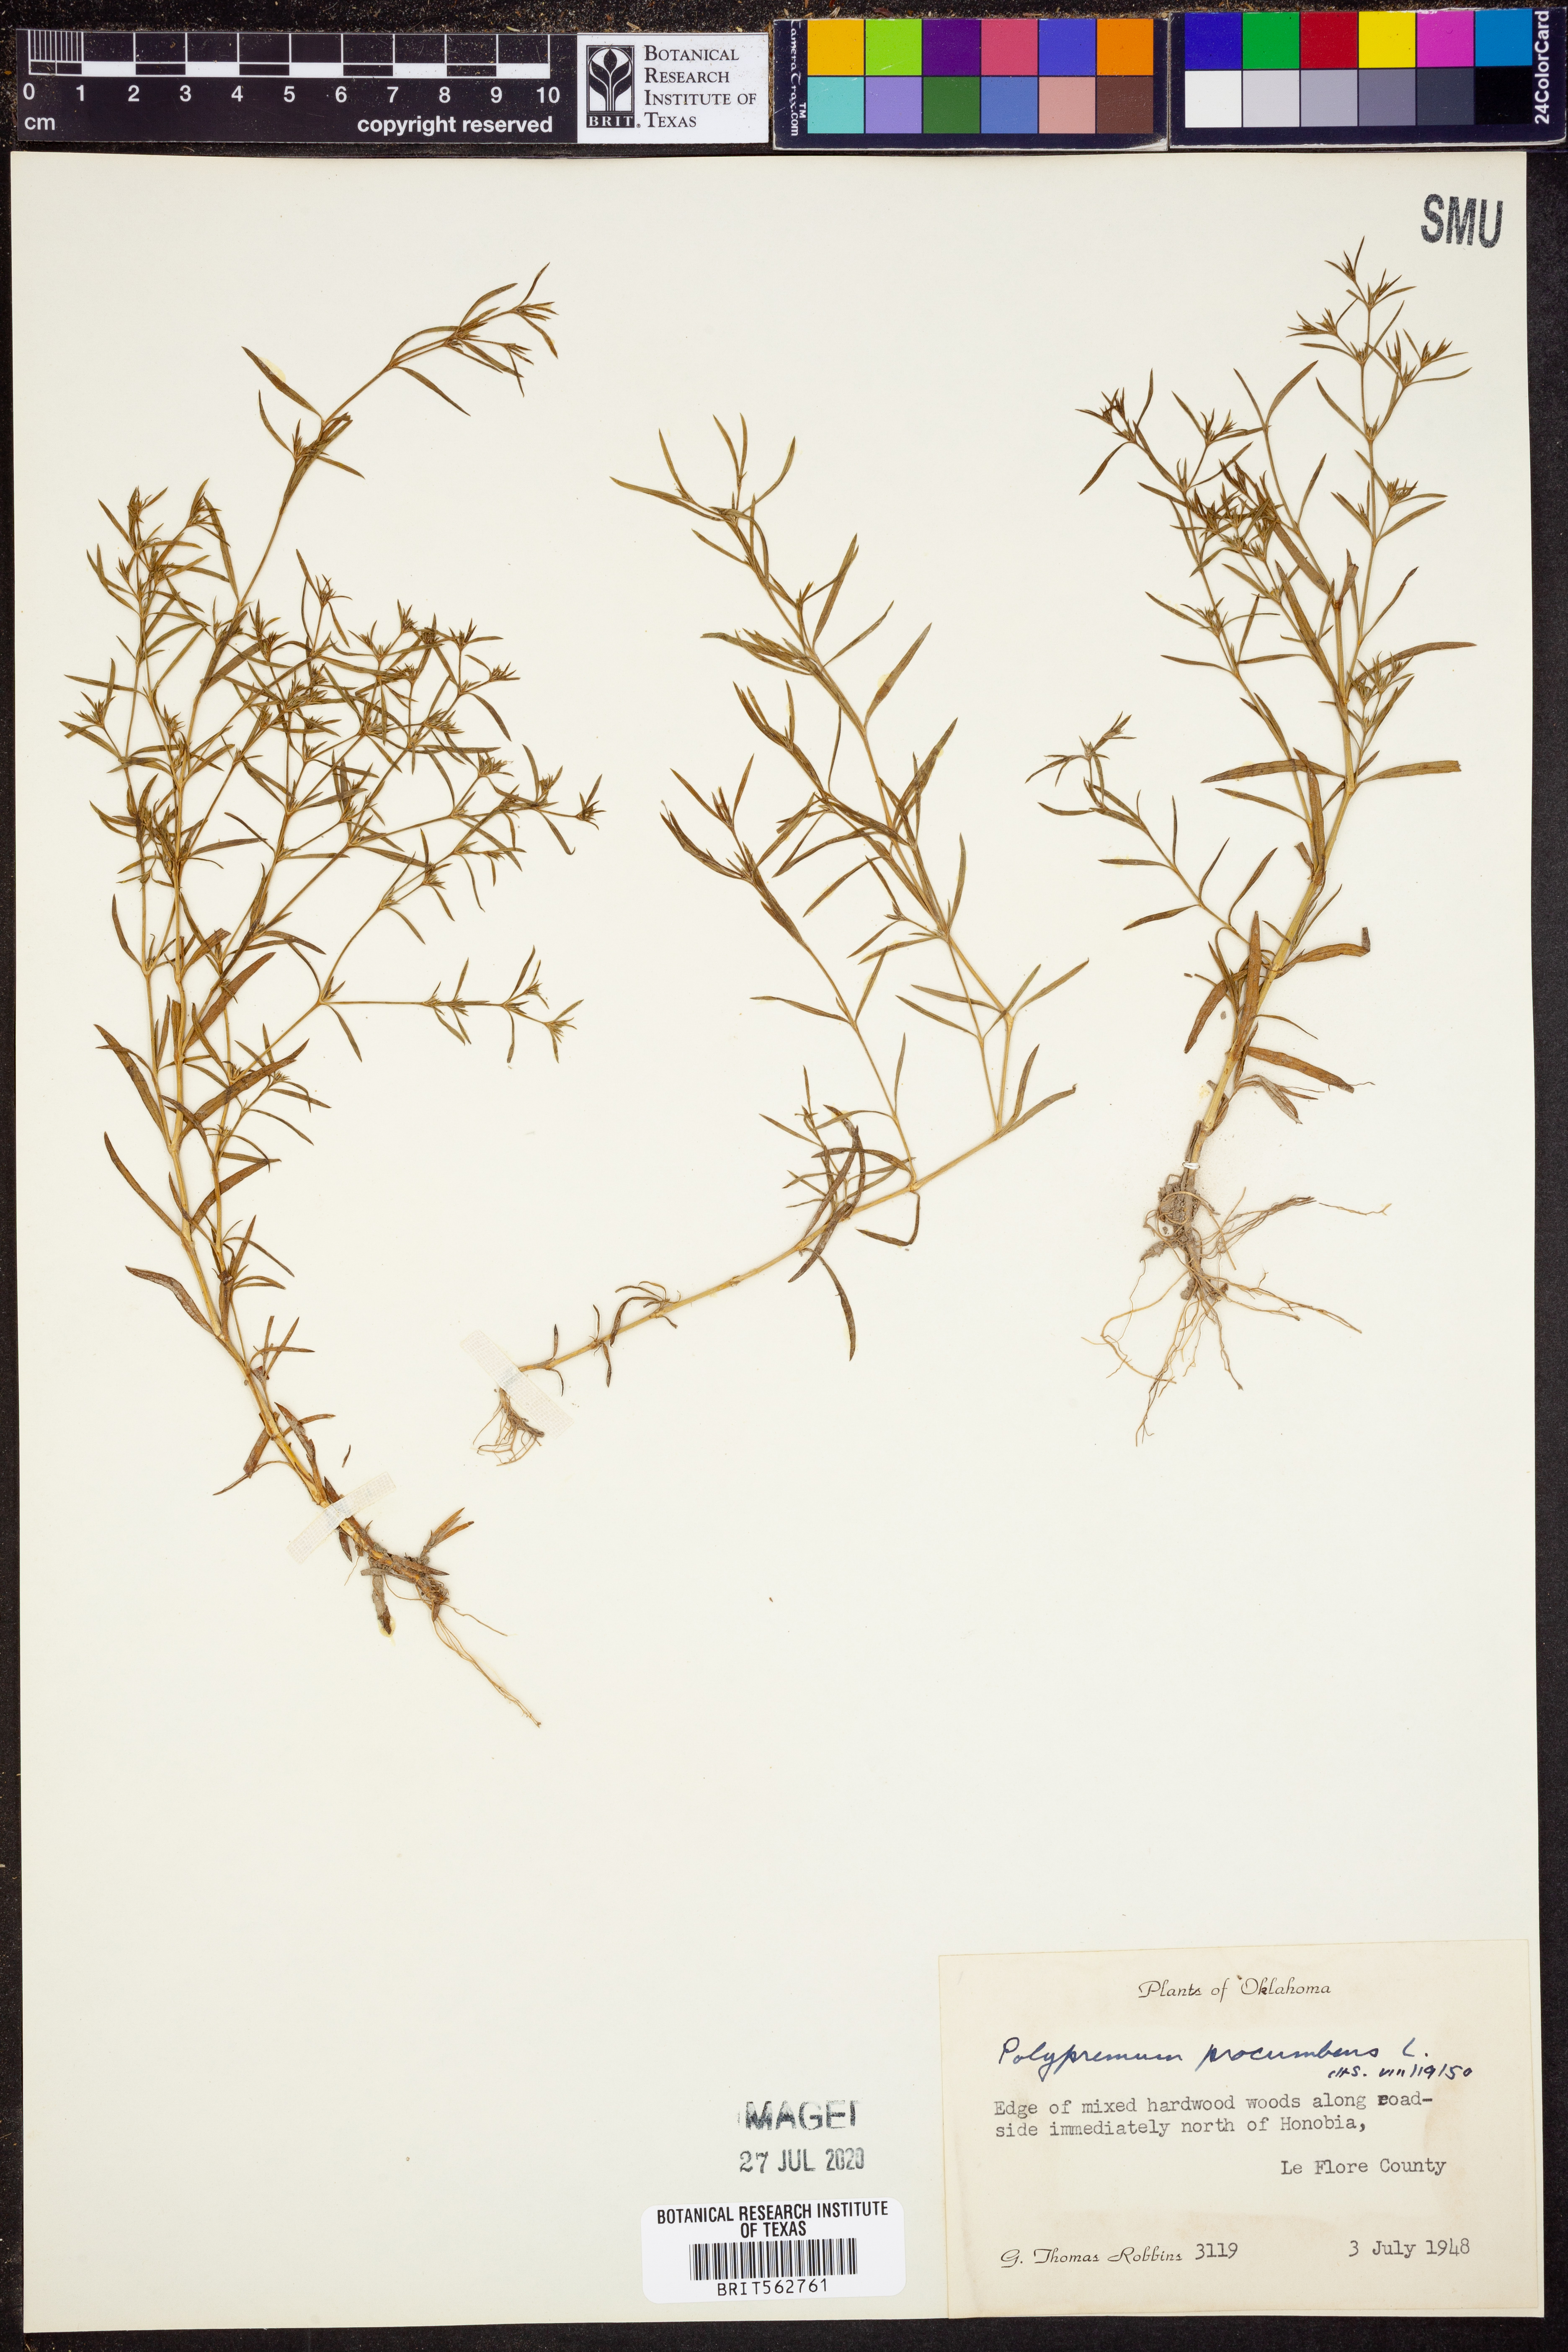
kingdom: Plantae
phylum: Tracheophyta
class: Magnoliopsida
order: Lamiales
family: Tetrachondraceae
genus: Polypremum
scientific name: Polypremum procumbens
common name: Juniper-leaf
